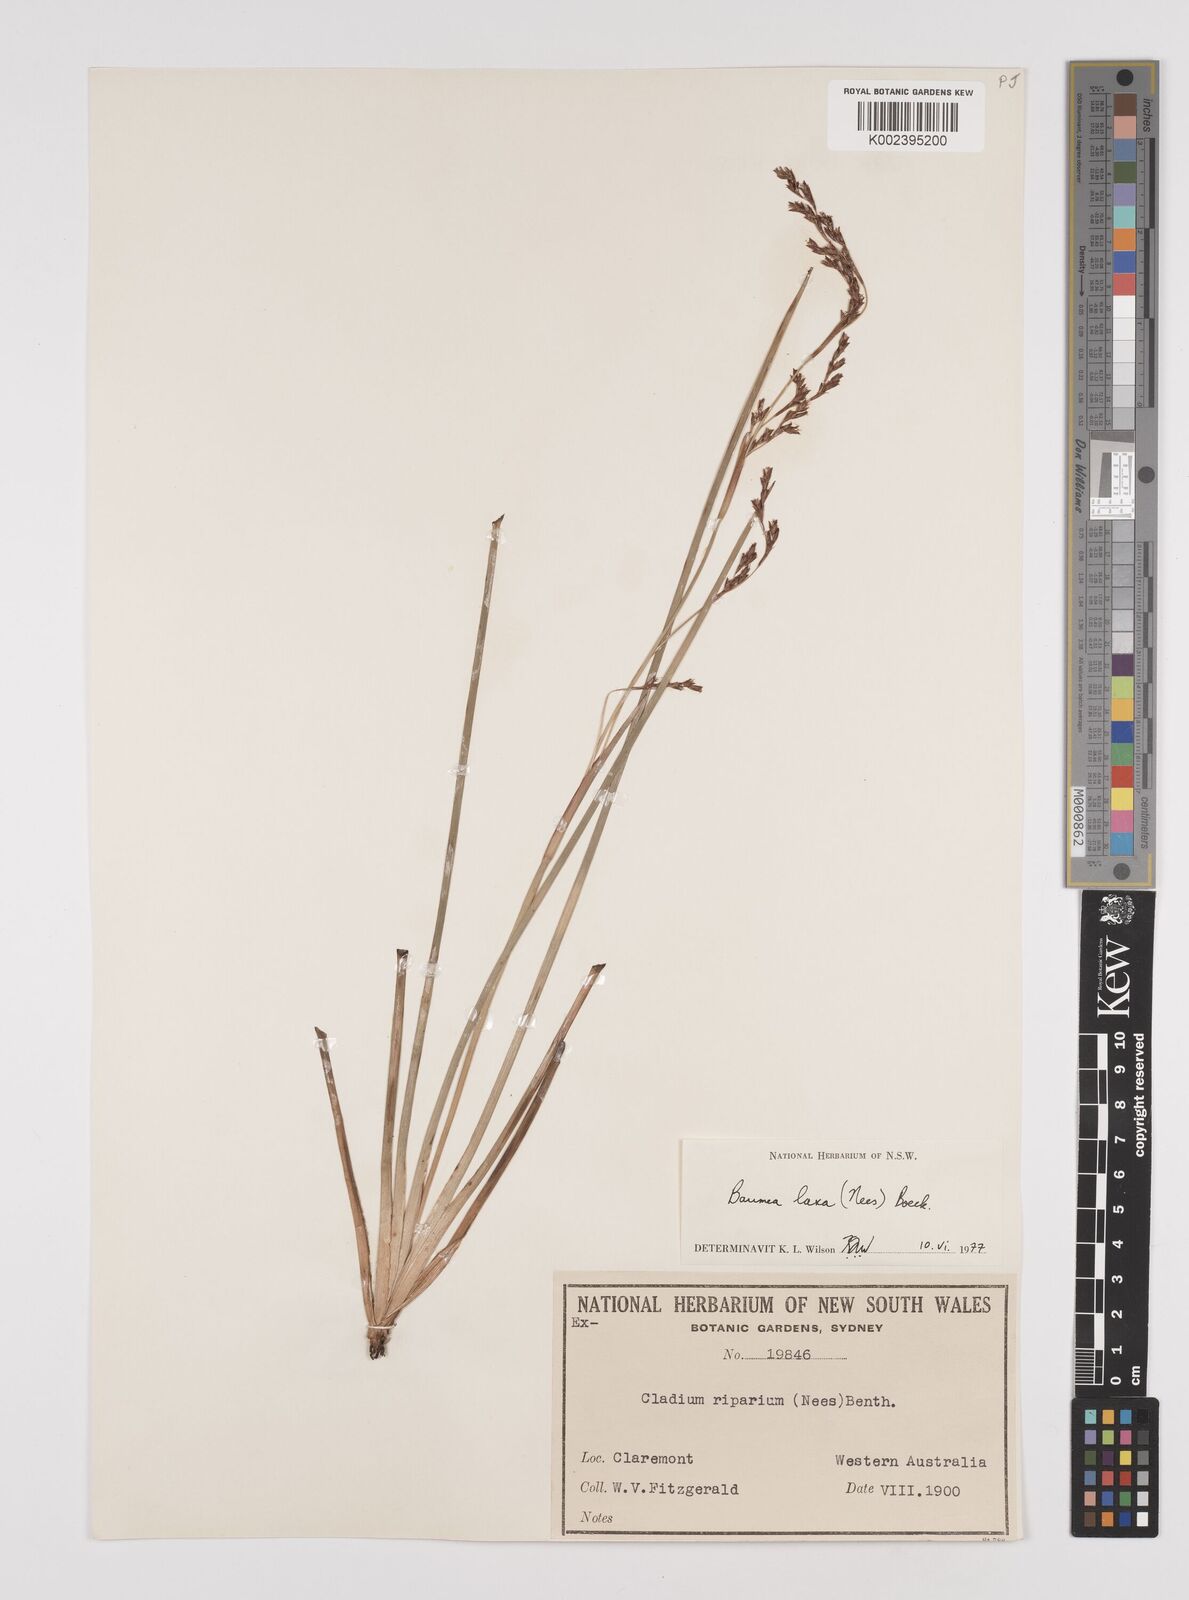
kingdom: Plantae
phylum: Tracheophyta
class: Liliopsida
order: Poales
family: Cyperaceae
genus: Machaerina
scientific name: Machaerina laxa
